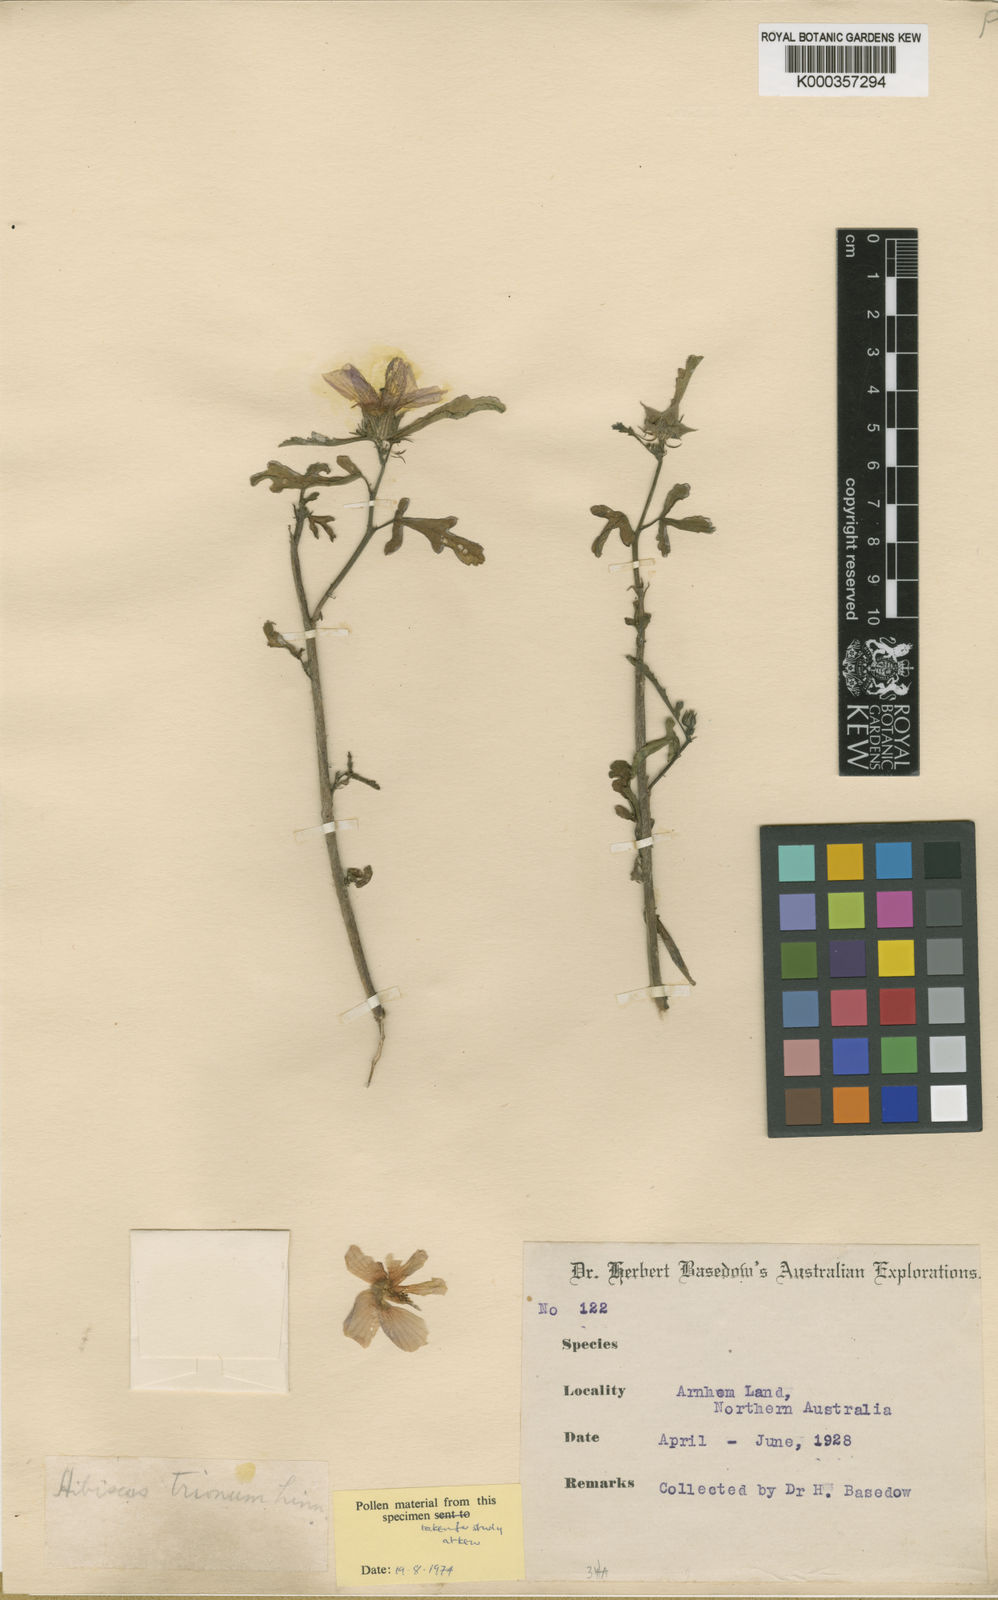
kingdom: Plantae
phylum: Tracheophyta
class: Magnoliopsida
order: Malvales
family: Malvaceae
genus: Hibiscus
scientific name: Hibiscus trionum
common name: Bladder ketmia
